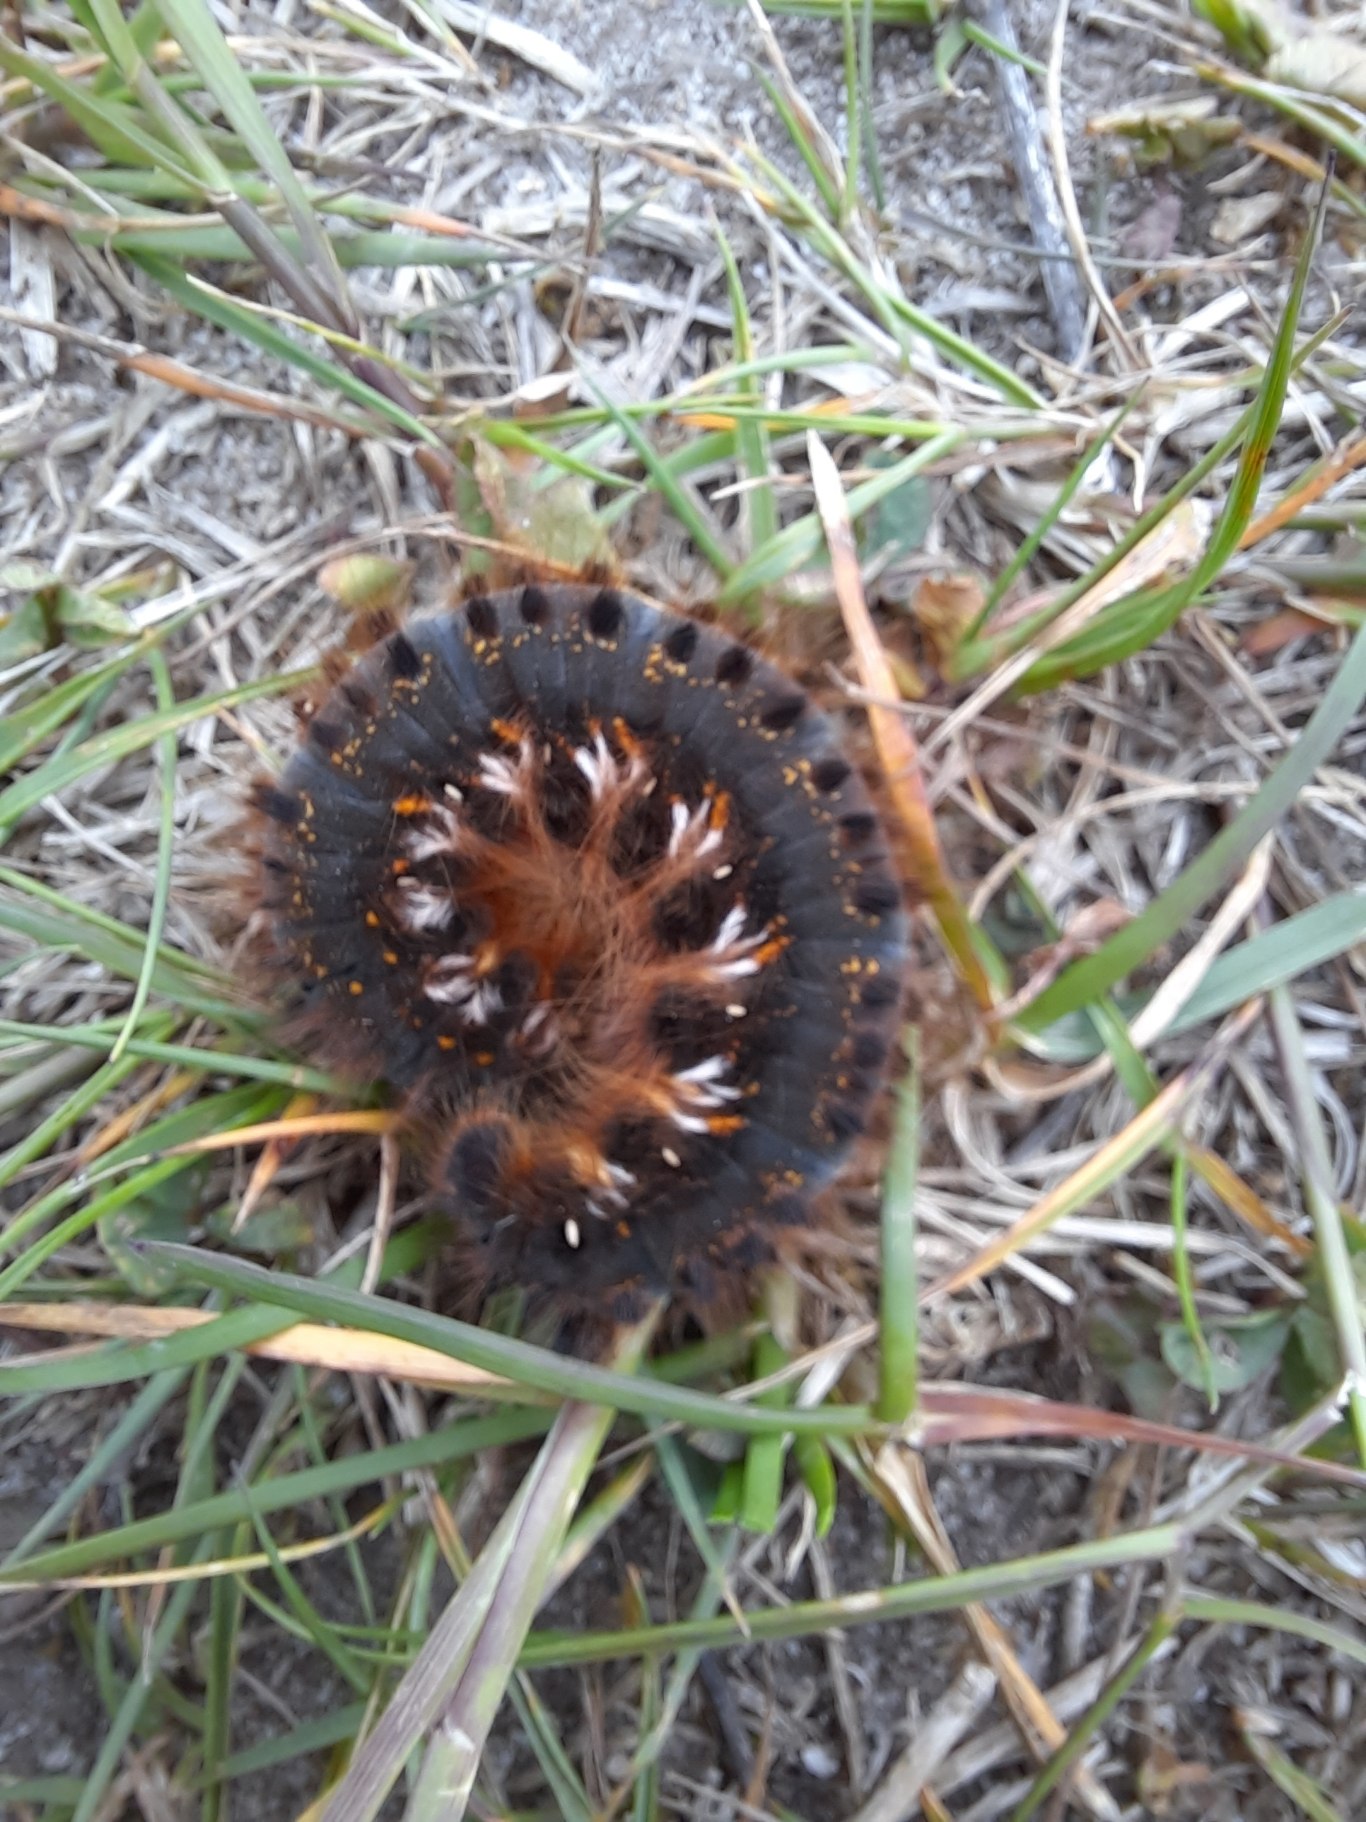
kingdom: Animalia
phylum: Arthropoda
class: Insecta
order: Lepidoptera
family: Lasiocampidae
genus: Euthrix
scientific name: Euthrix potatoria
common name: Græsspinder
